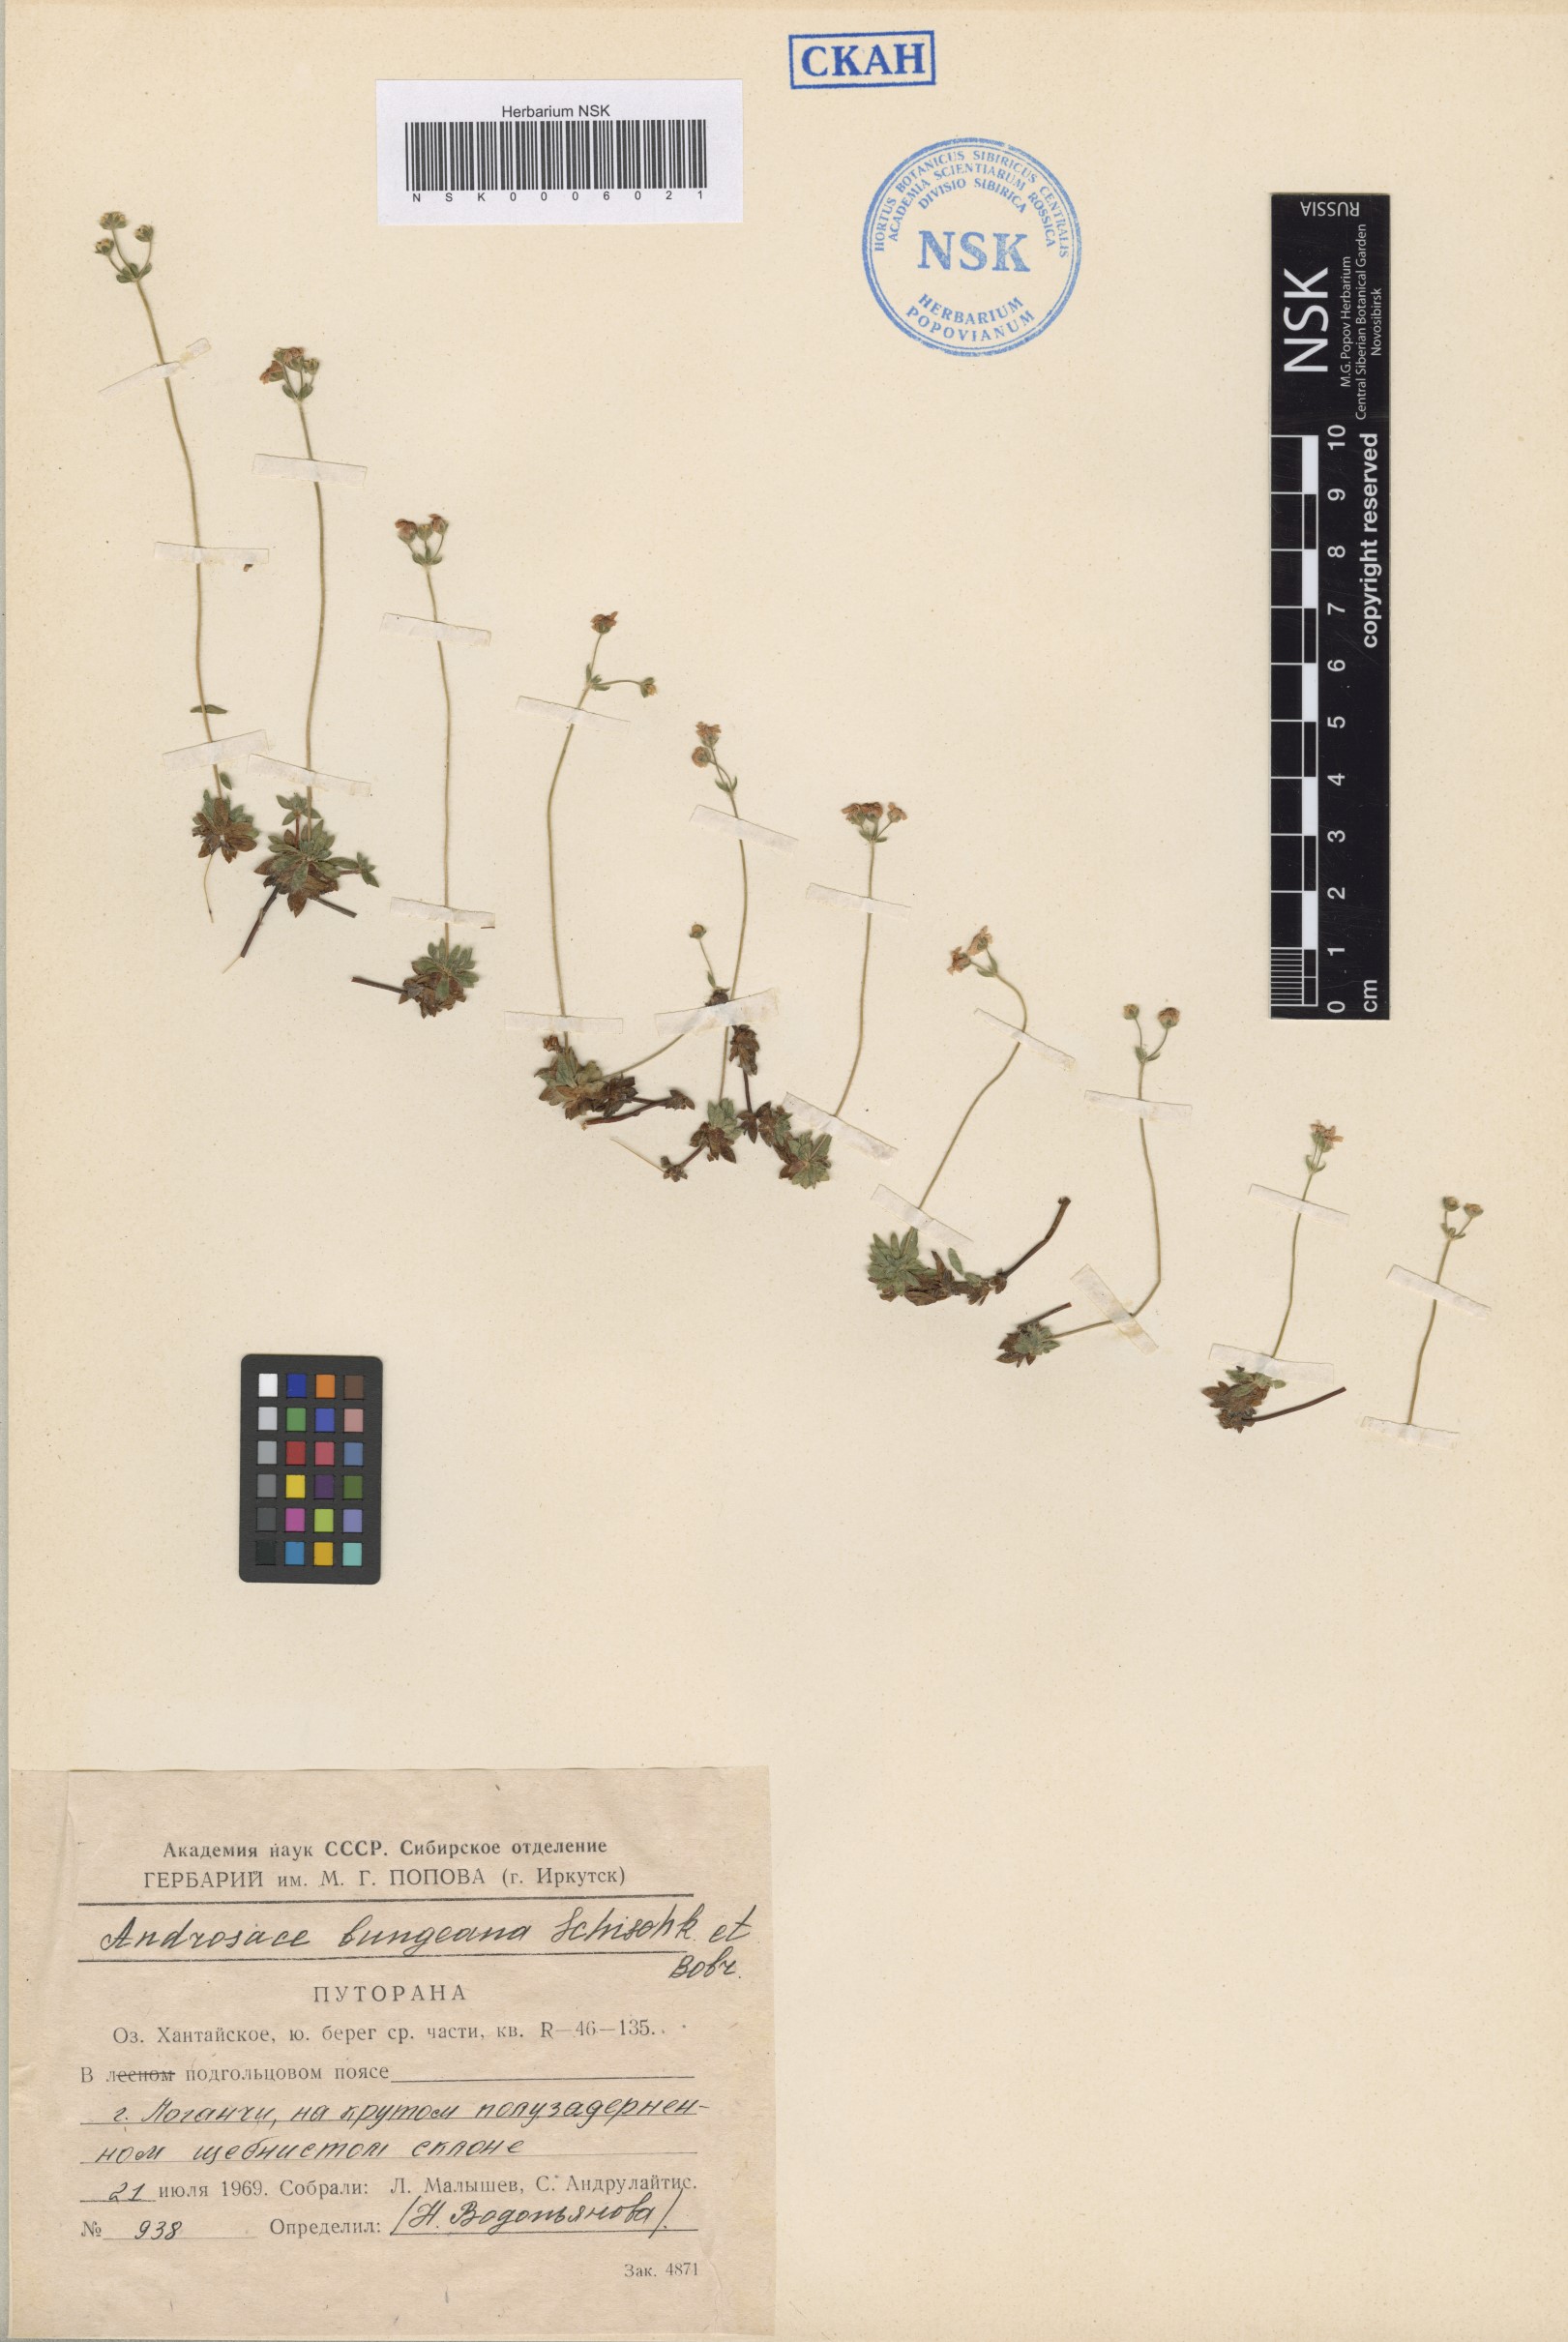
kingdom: Plantae
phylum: Tracheophyta
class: Magnoliopsida
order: Ericales
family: Primulaceae
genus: Androsace
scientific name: Androsace bungeana
